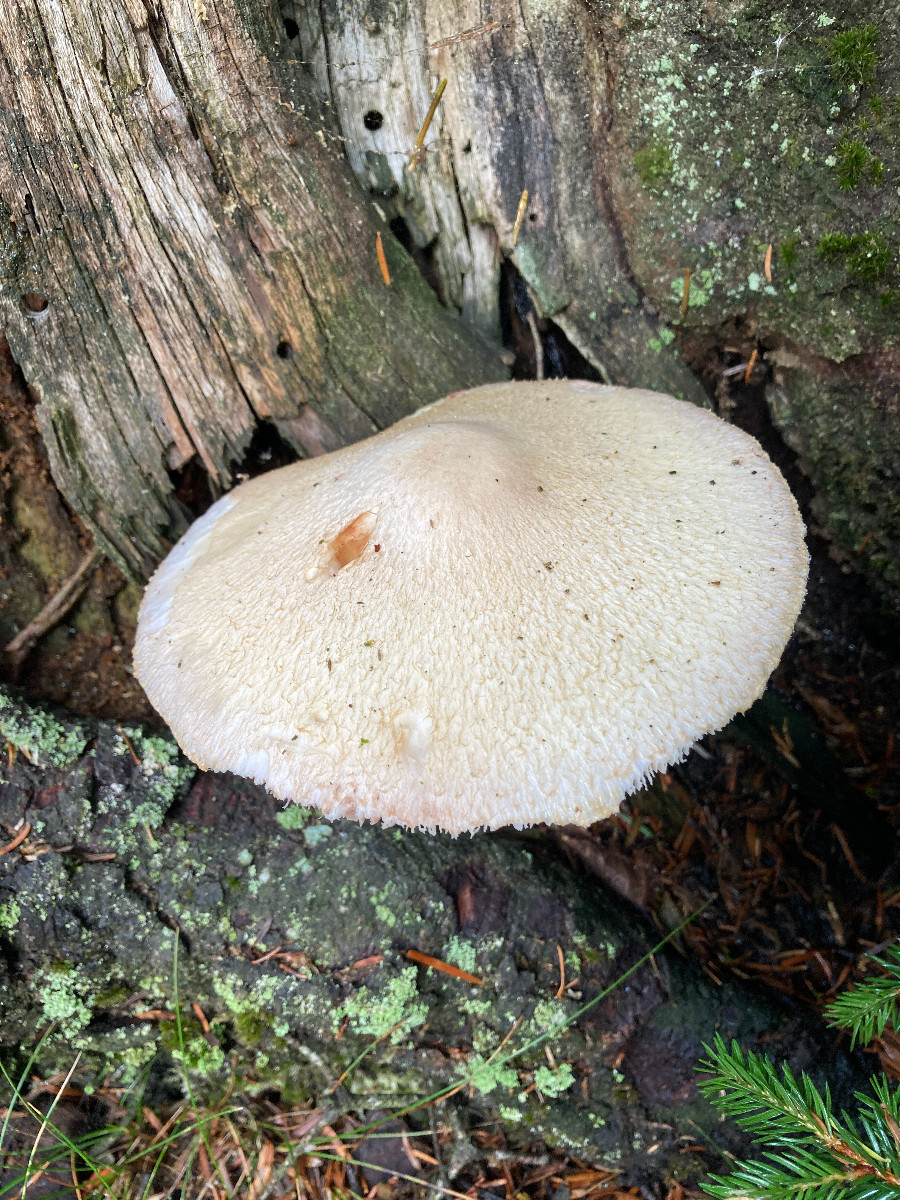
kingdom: Fungi
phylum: Basidiomycota
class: Agaricomycetes
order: Agaricales
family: Pluteaceae
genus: Volvariella
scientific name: Volvariella bombycina
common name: silkehåret posesvamp
